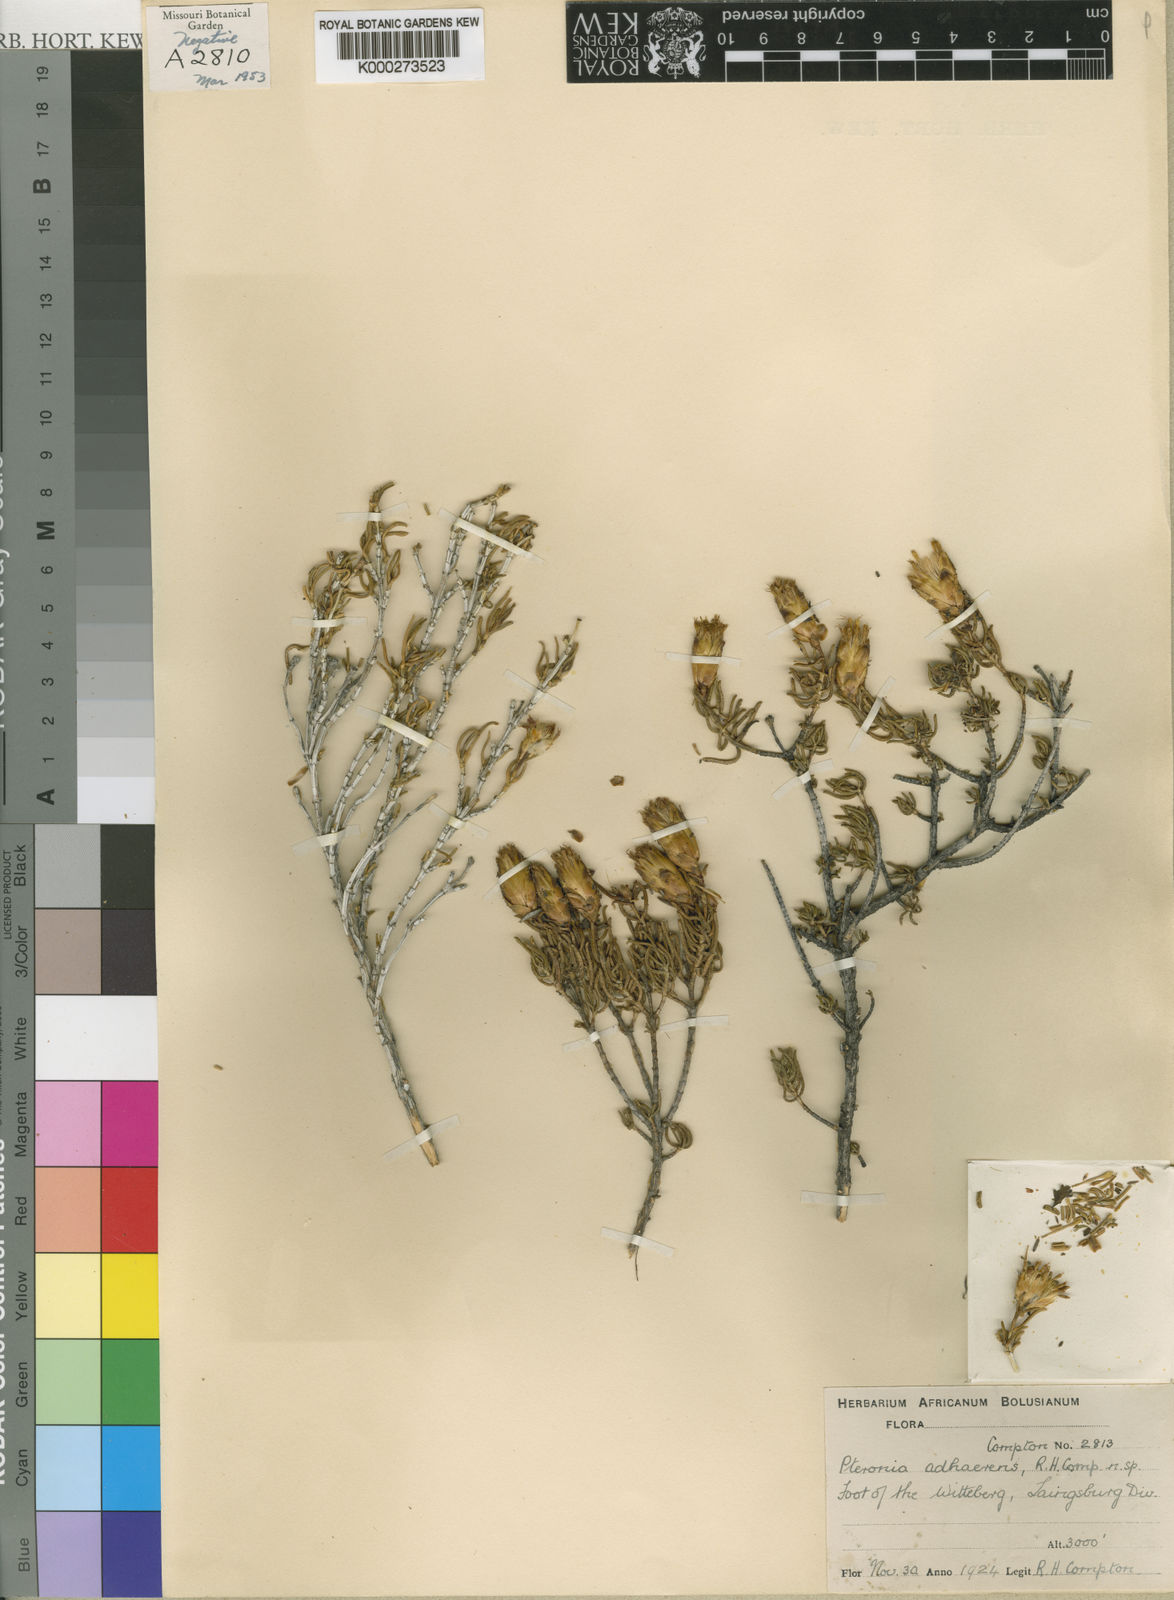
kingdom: Plantae
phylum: Tracheophyta
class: Magnoliopsida
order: Asterales
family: Asteraceae
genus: Pteronia
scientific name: Pteronia adhaerens
